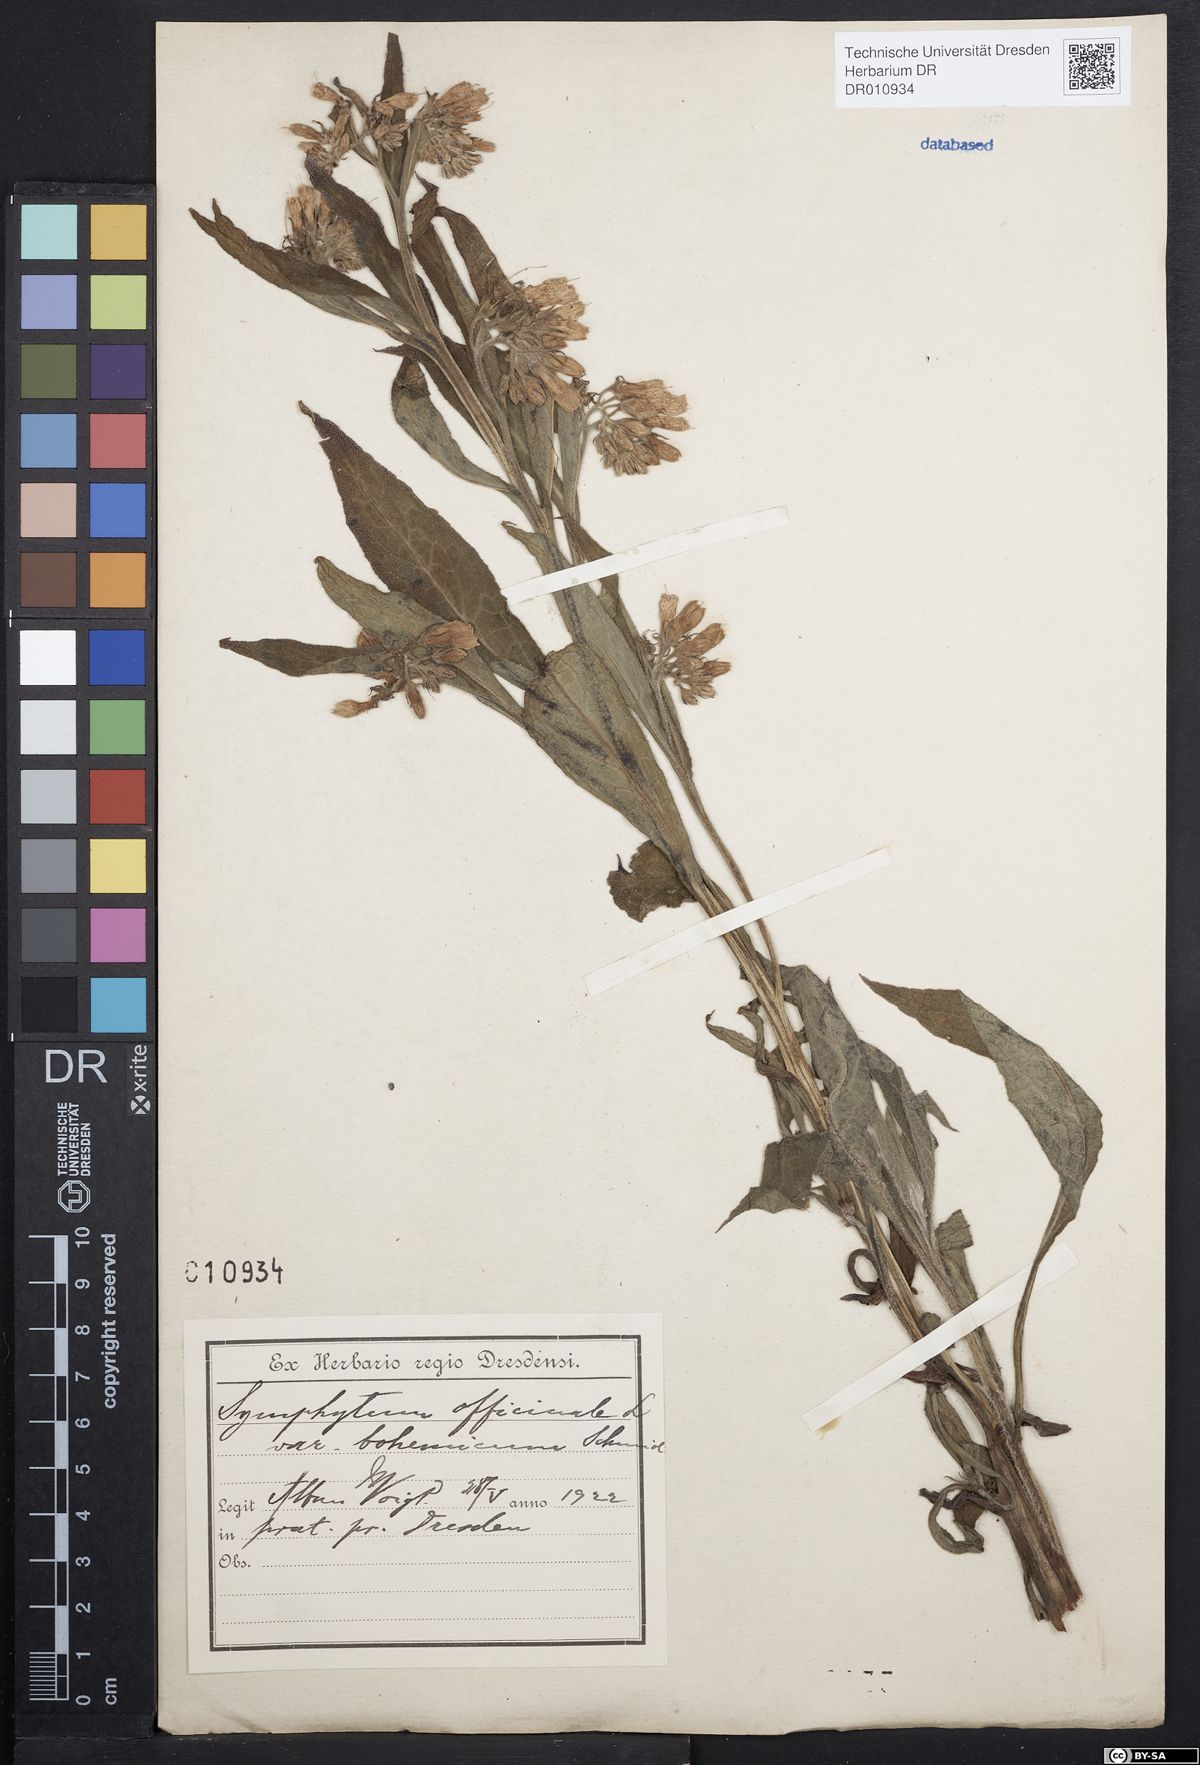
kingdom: Plantae
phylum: Tracheophyta
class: Magnoliopsida
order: Boraginales
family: Boraginaceae
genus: Symphytum
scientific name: Symphytum officinale
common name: Common comfrey
